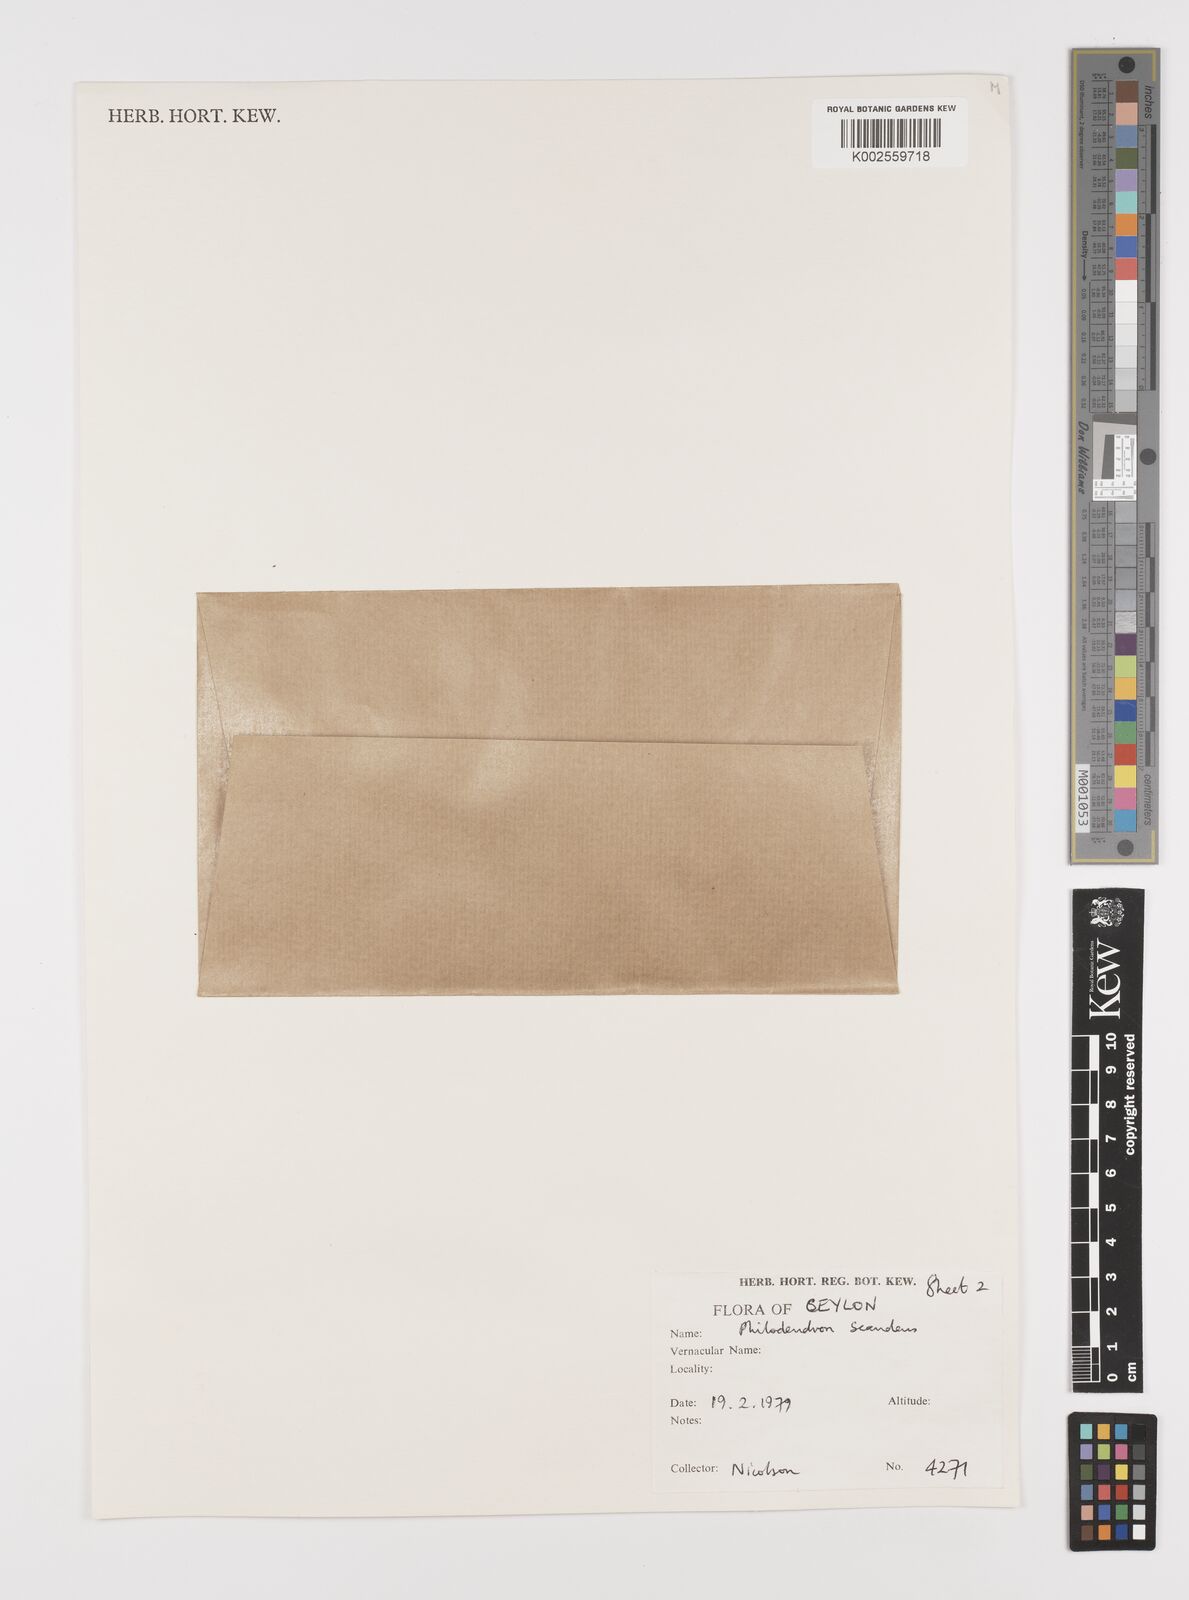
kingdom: Plantae
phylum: Tracheophyta
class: Liliopsida
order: Alismatales
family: Araceae
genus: Philodendron
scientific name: Philodendron hederaceum
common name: Vilevine
